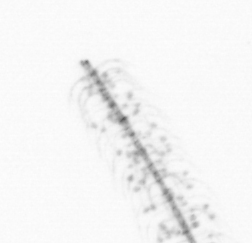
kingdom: Chromista
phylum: Ochrophyta
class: Bacillariophyceae
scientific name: Bacillariophyceae
